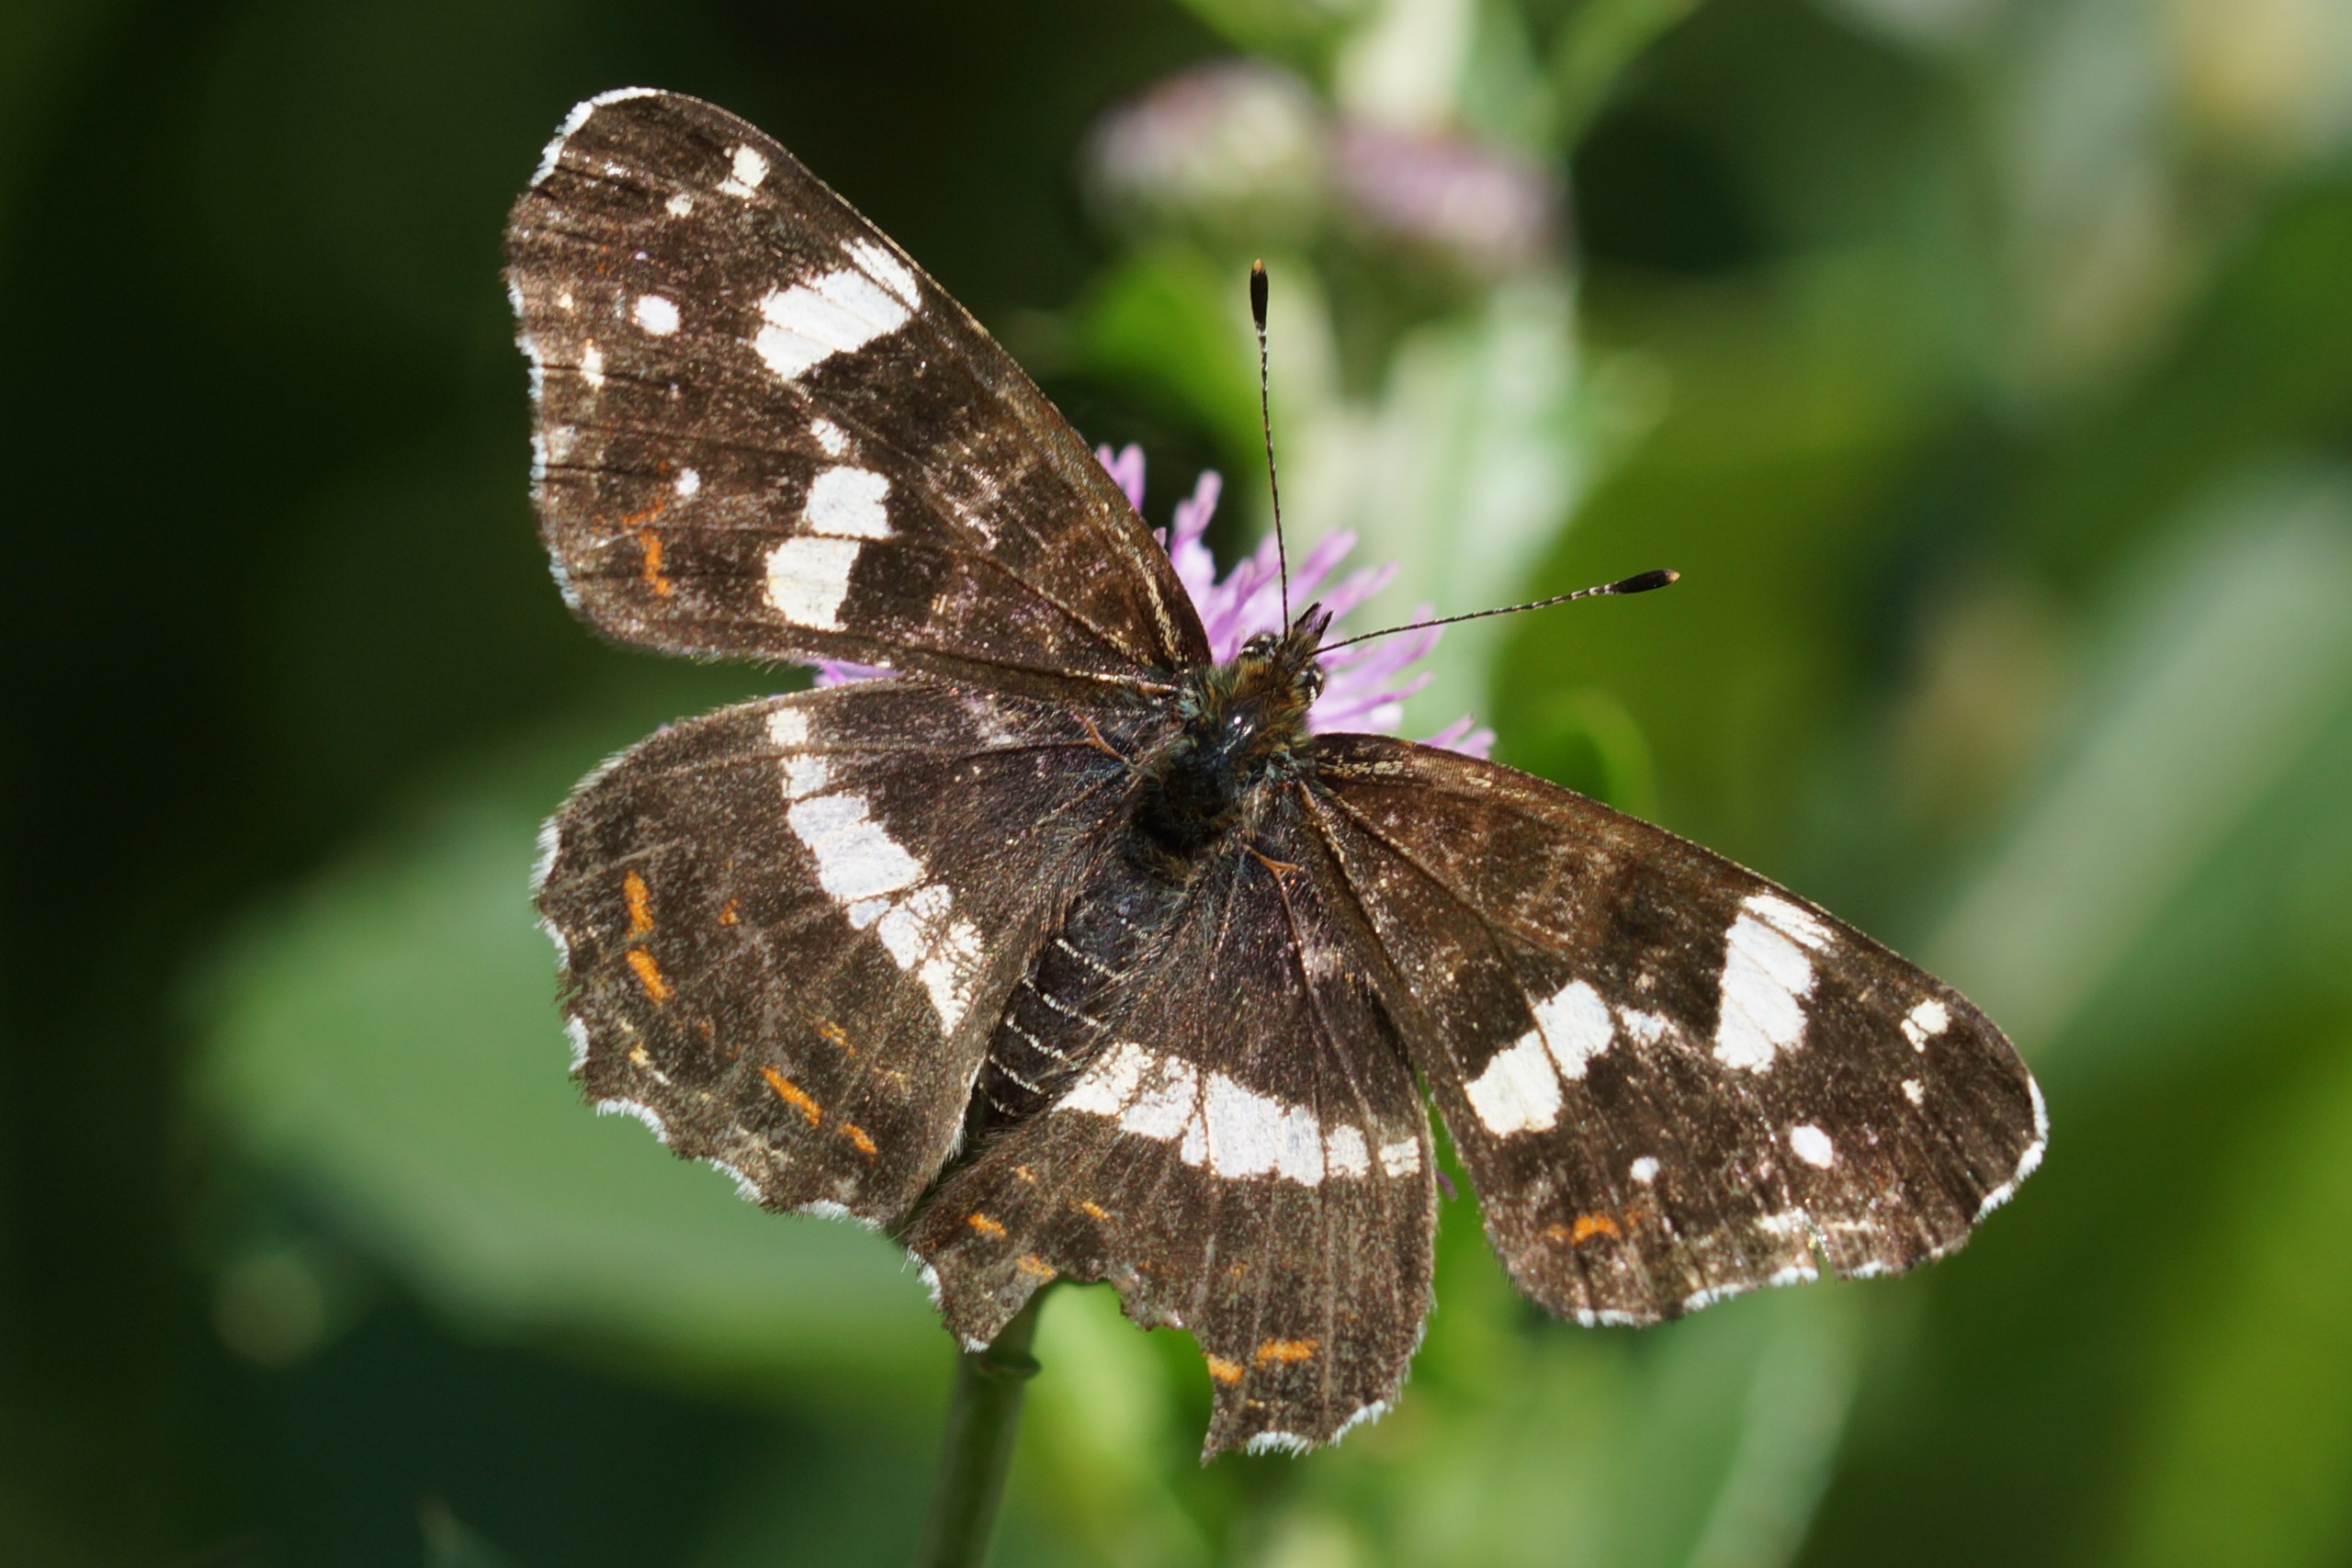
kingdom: Animalia
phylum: Arthropoda
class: Insecta
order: Lepidoptera
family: Nymphalidae
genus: Araschnia
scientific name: Araschnia levana
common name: Nældesommerfugl
